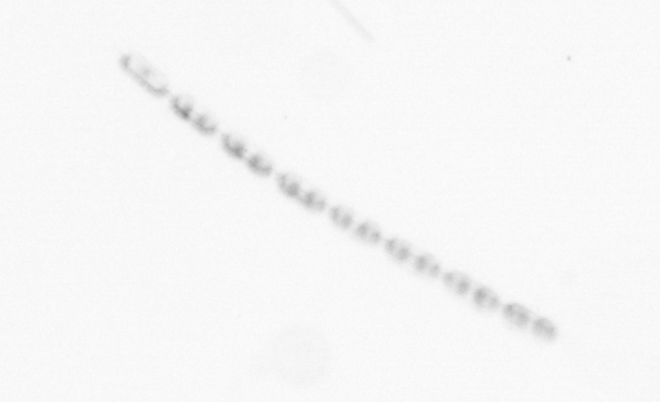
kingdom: Chromista
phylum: Ochrophyta
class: Bacillariophyceae
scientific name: Bacillariophyceae
